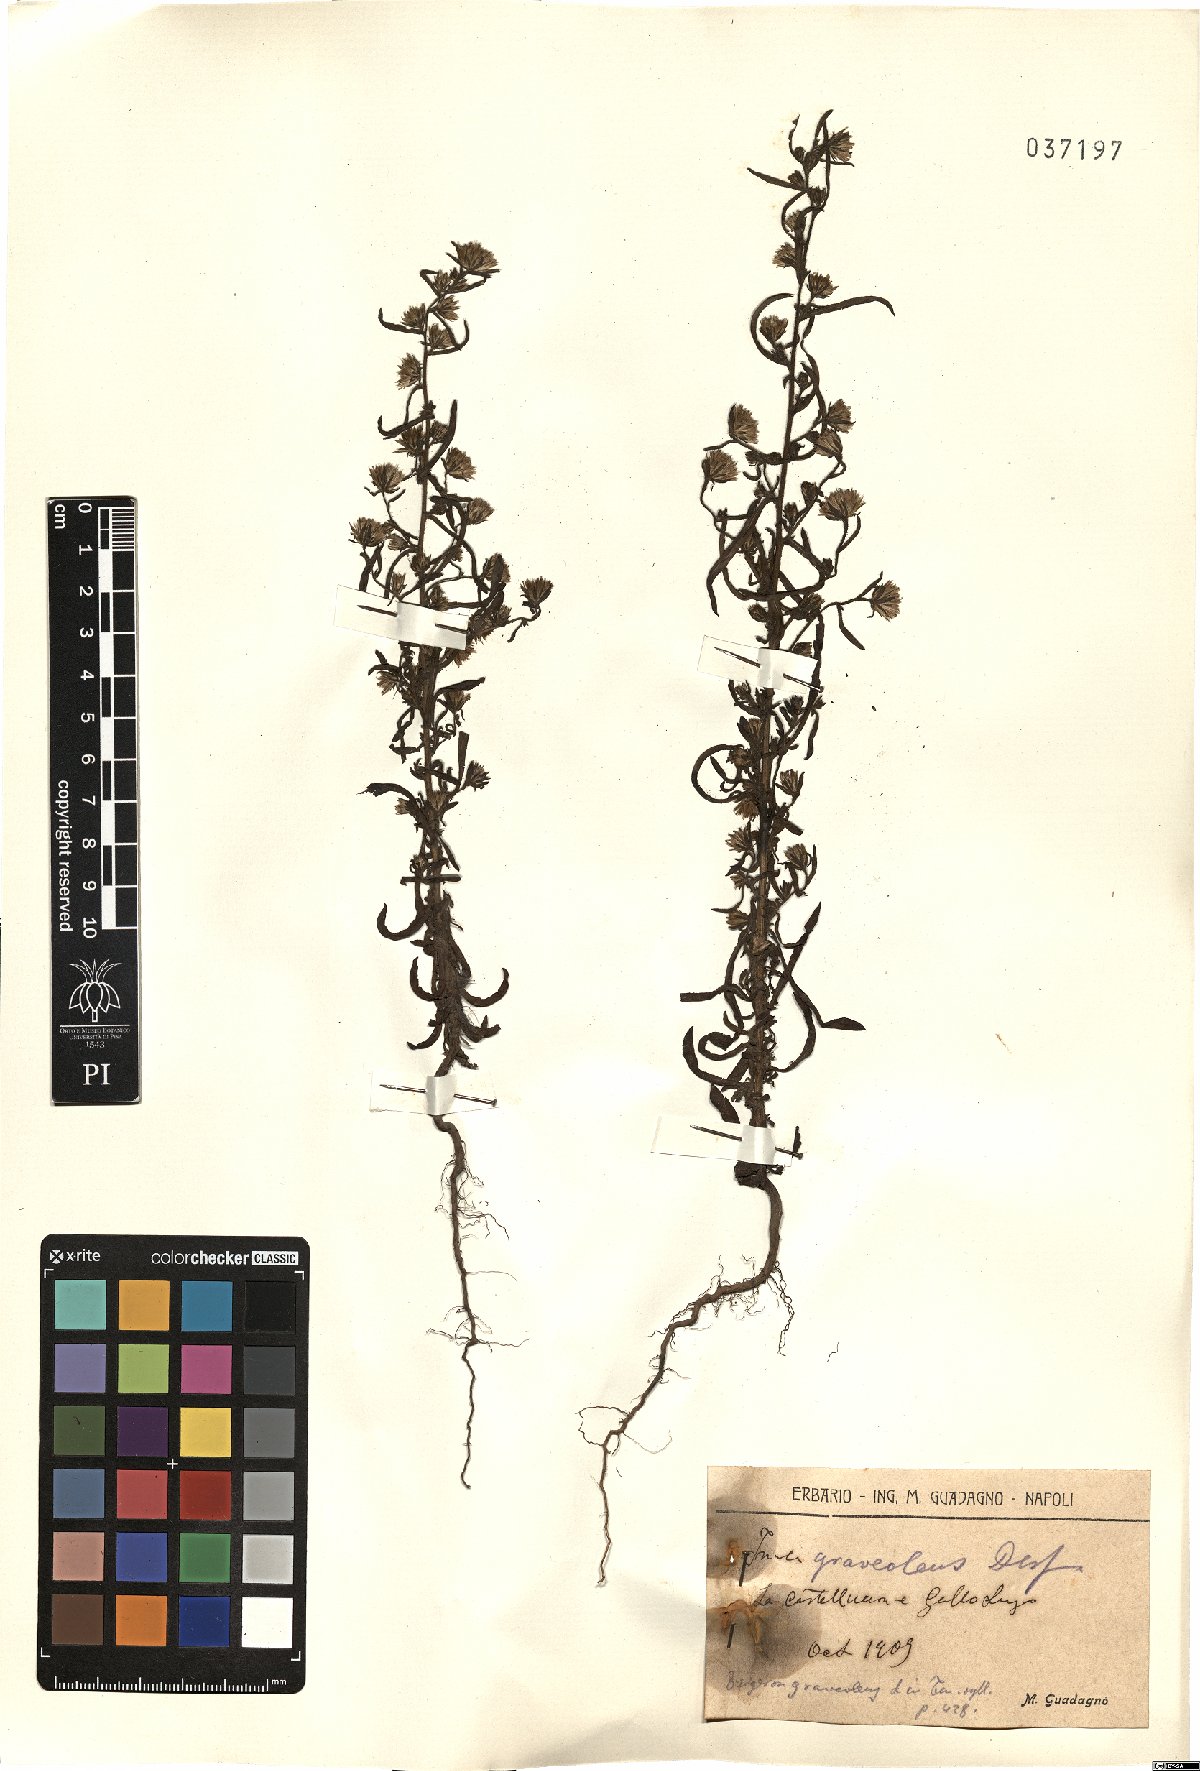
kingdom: Plantae
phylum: Tracheophyta
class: Magnoliopsida
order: Asterales
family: Asteraceae
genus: Dittrichia
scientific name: Dittrichia graveolens
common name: Stinking fleabane
